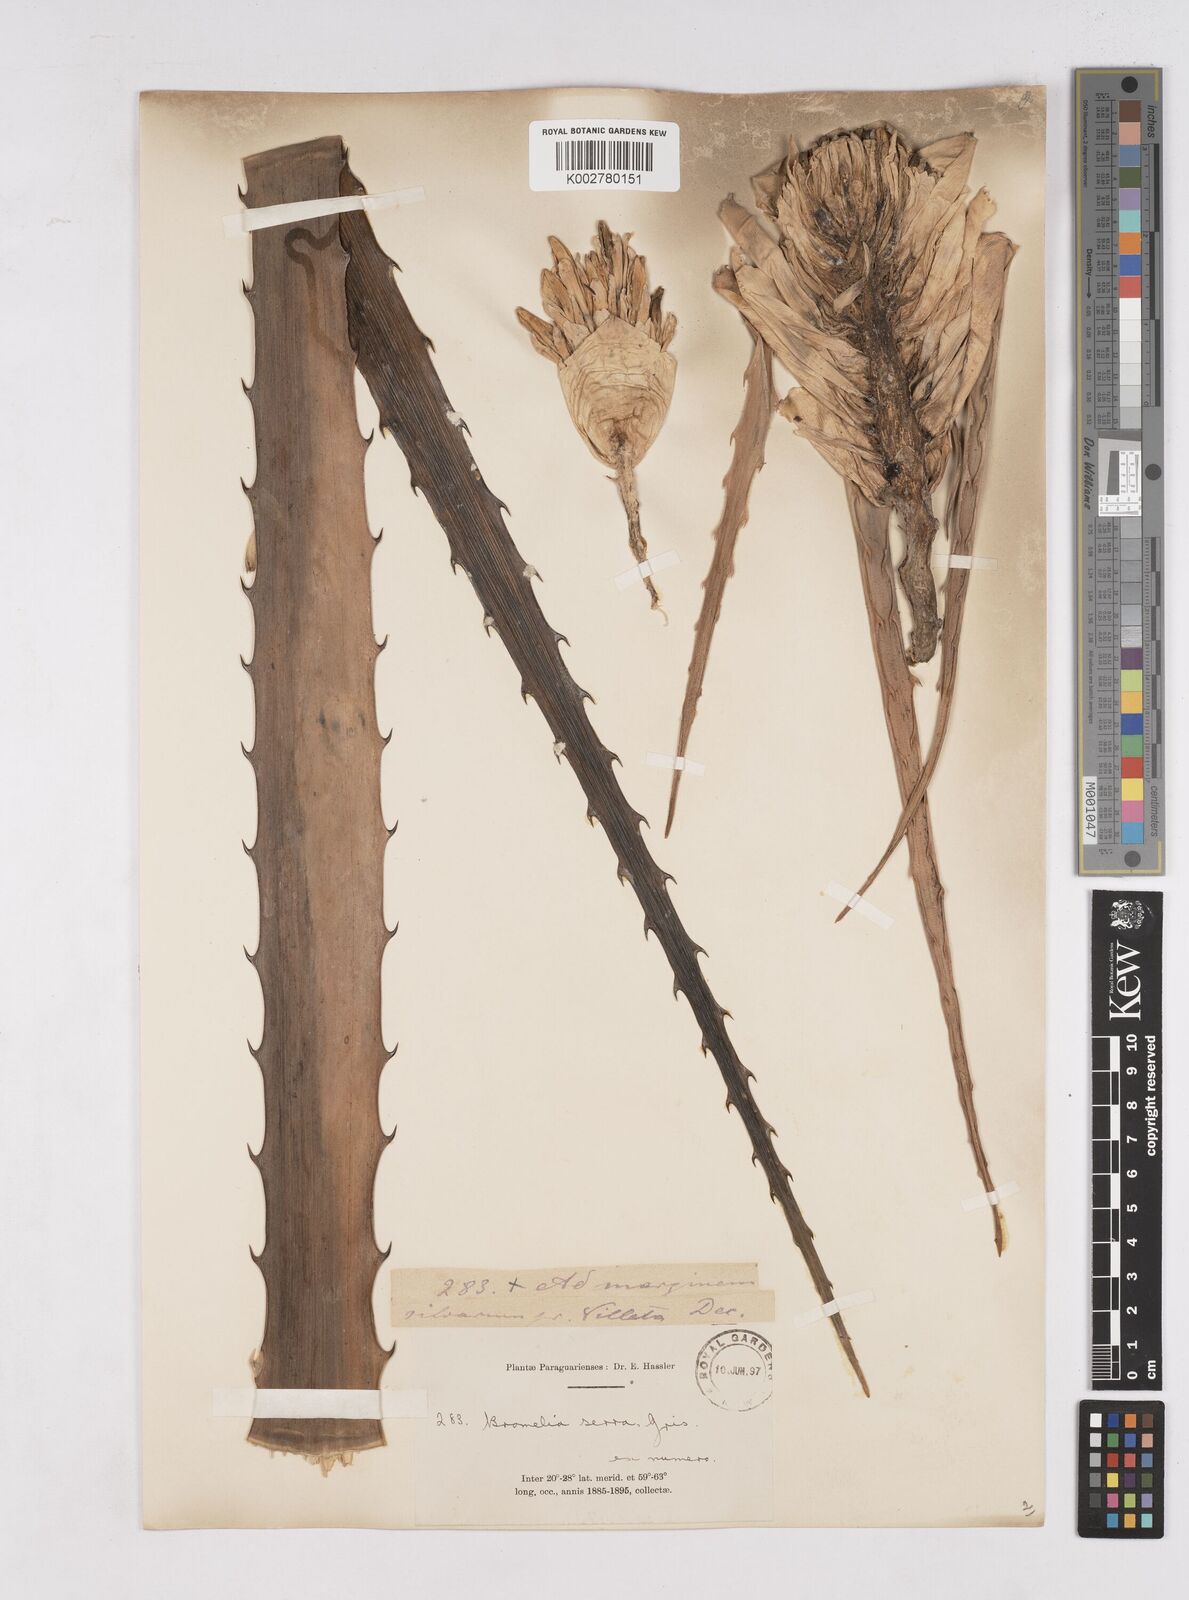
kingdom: Plantae
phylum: Tracheophyta
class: Liliopsida
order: Poales
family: Bromeliaceae
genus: Bromelia
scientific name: Bromelia serra
